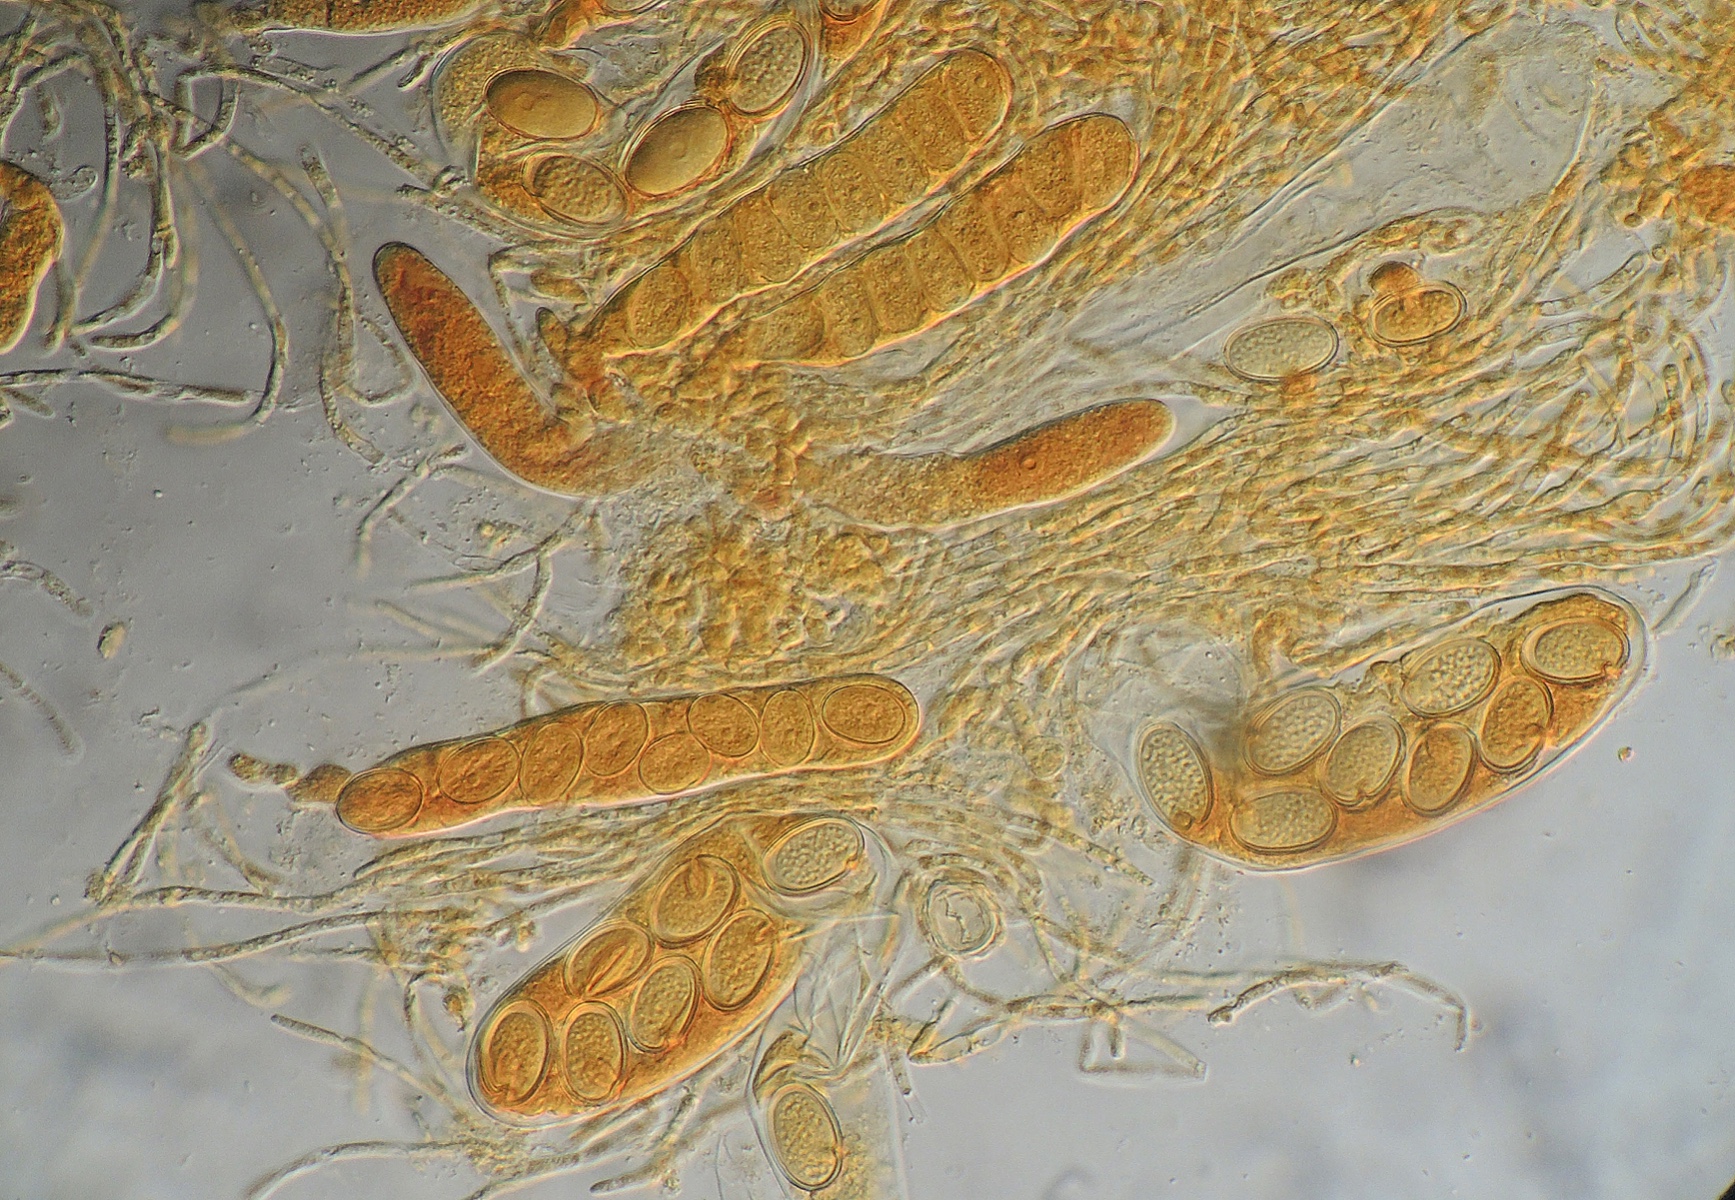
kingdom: Fungi
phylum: Ascomycota
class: Pezizomycetes
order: Pezizales
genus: Coprotus
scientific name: Coprotus ochraceus
